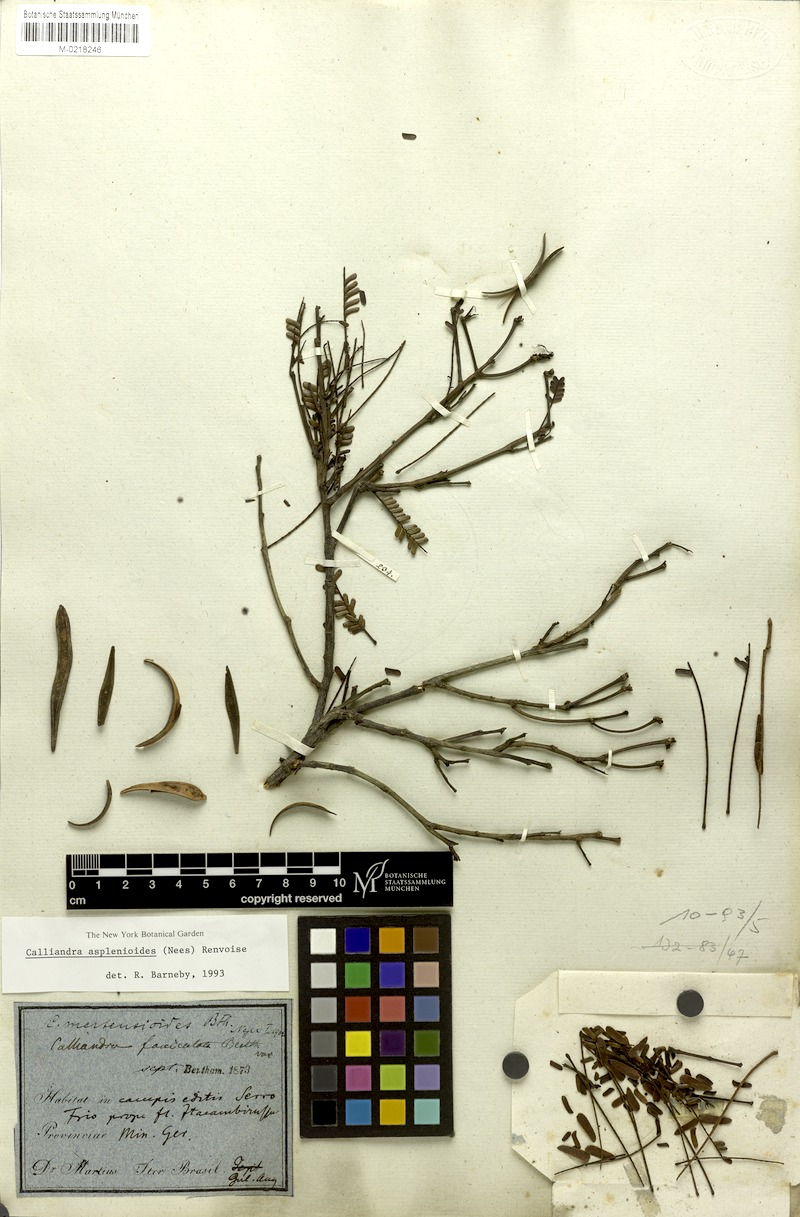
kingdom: Plantae
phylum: Tracheophyta
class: Magnoliopsida
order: Fabales
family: Fabaceae
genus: Calliandra
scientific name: Calliandra asplenioides
